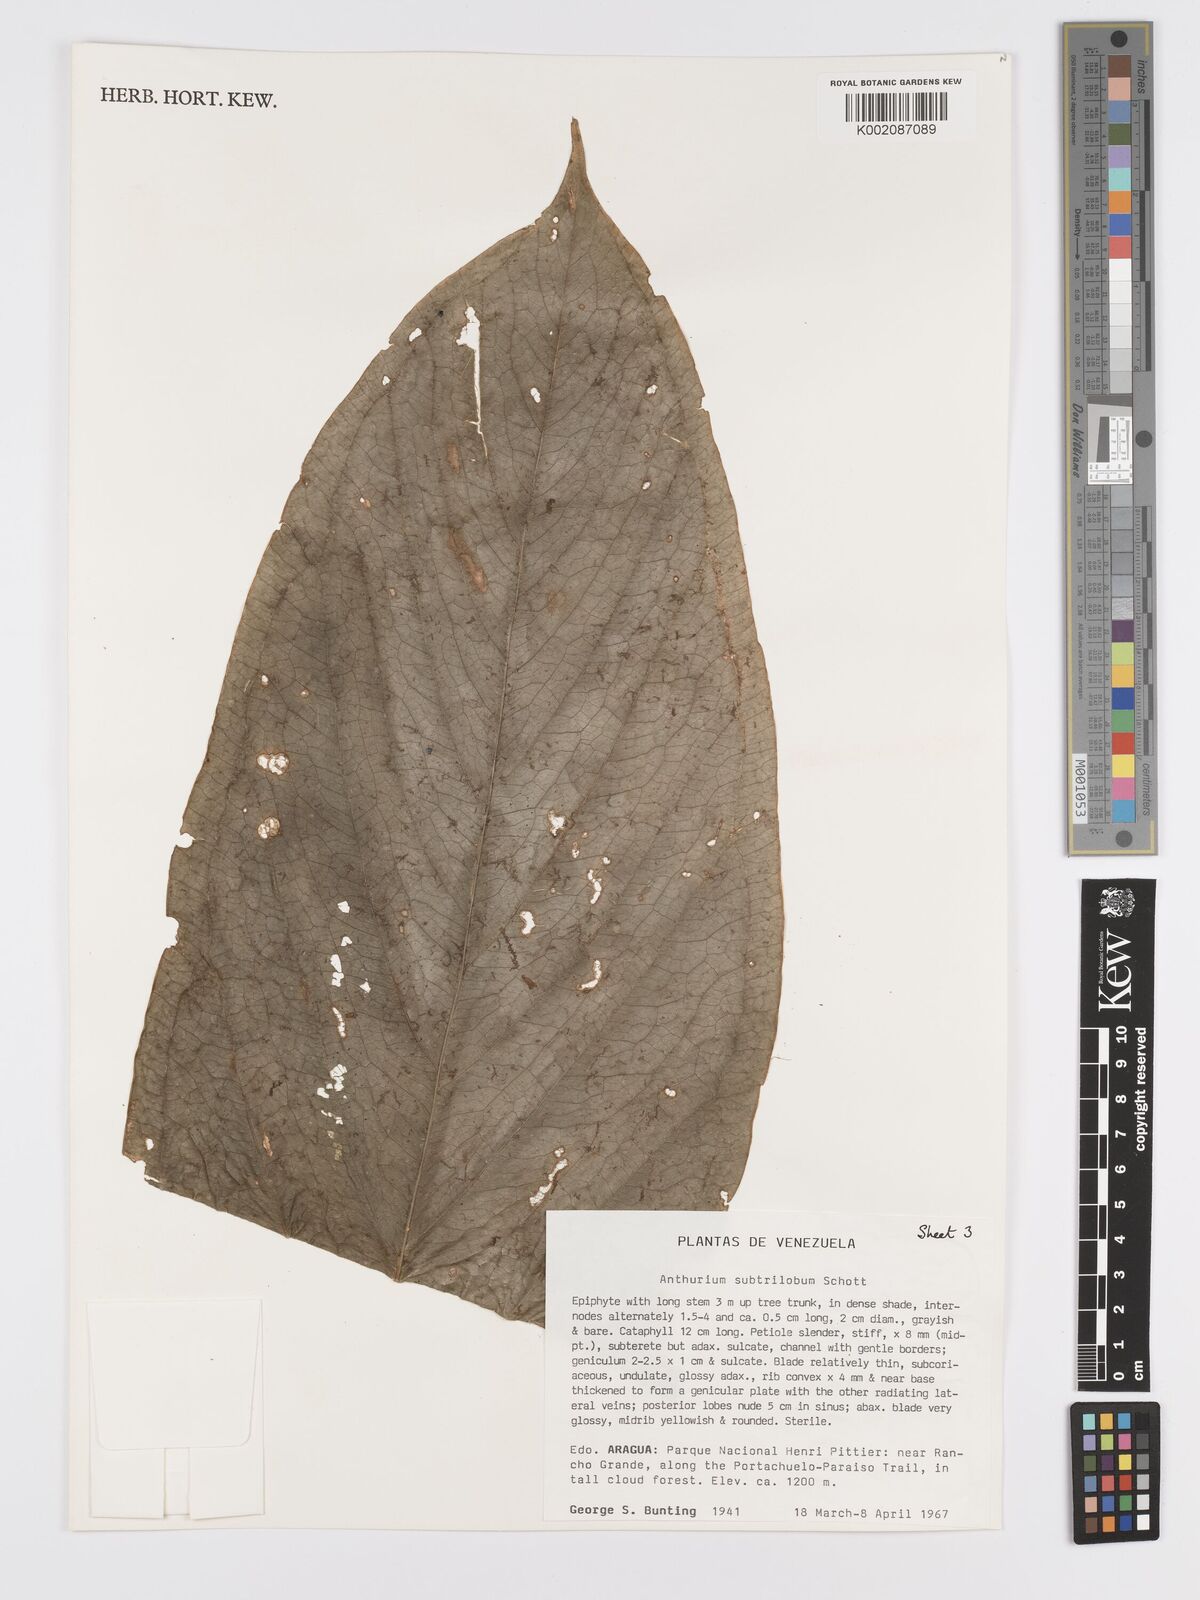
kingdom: Plantae
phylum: Tracheophyta
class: Liliopsida
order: Alismatales
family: Araceae
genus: Anthurium
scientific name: Anthurium subtrilobum
